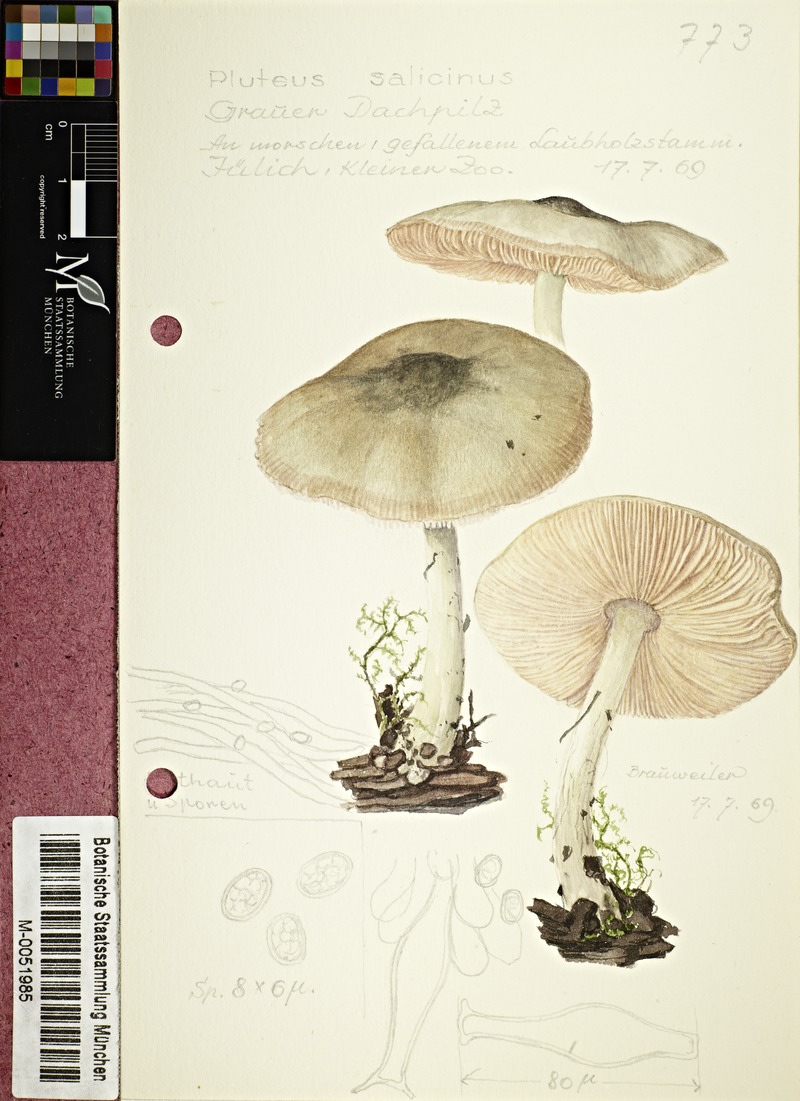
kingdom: Fungi
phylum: Basidiomycota
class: Agaricomycetes
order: Agaricales
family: Pluteaceae
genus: Pluteus
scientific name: Pluteus salicinus
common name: Willow shield
